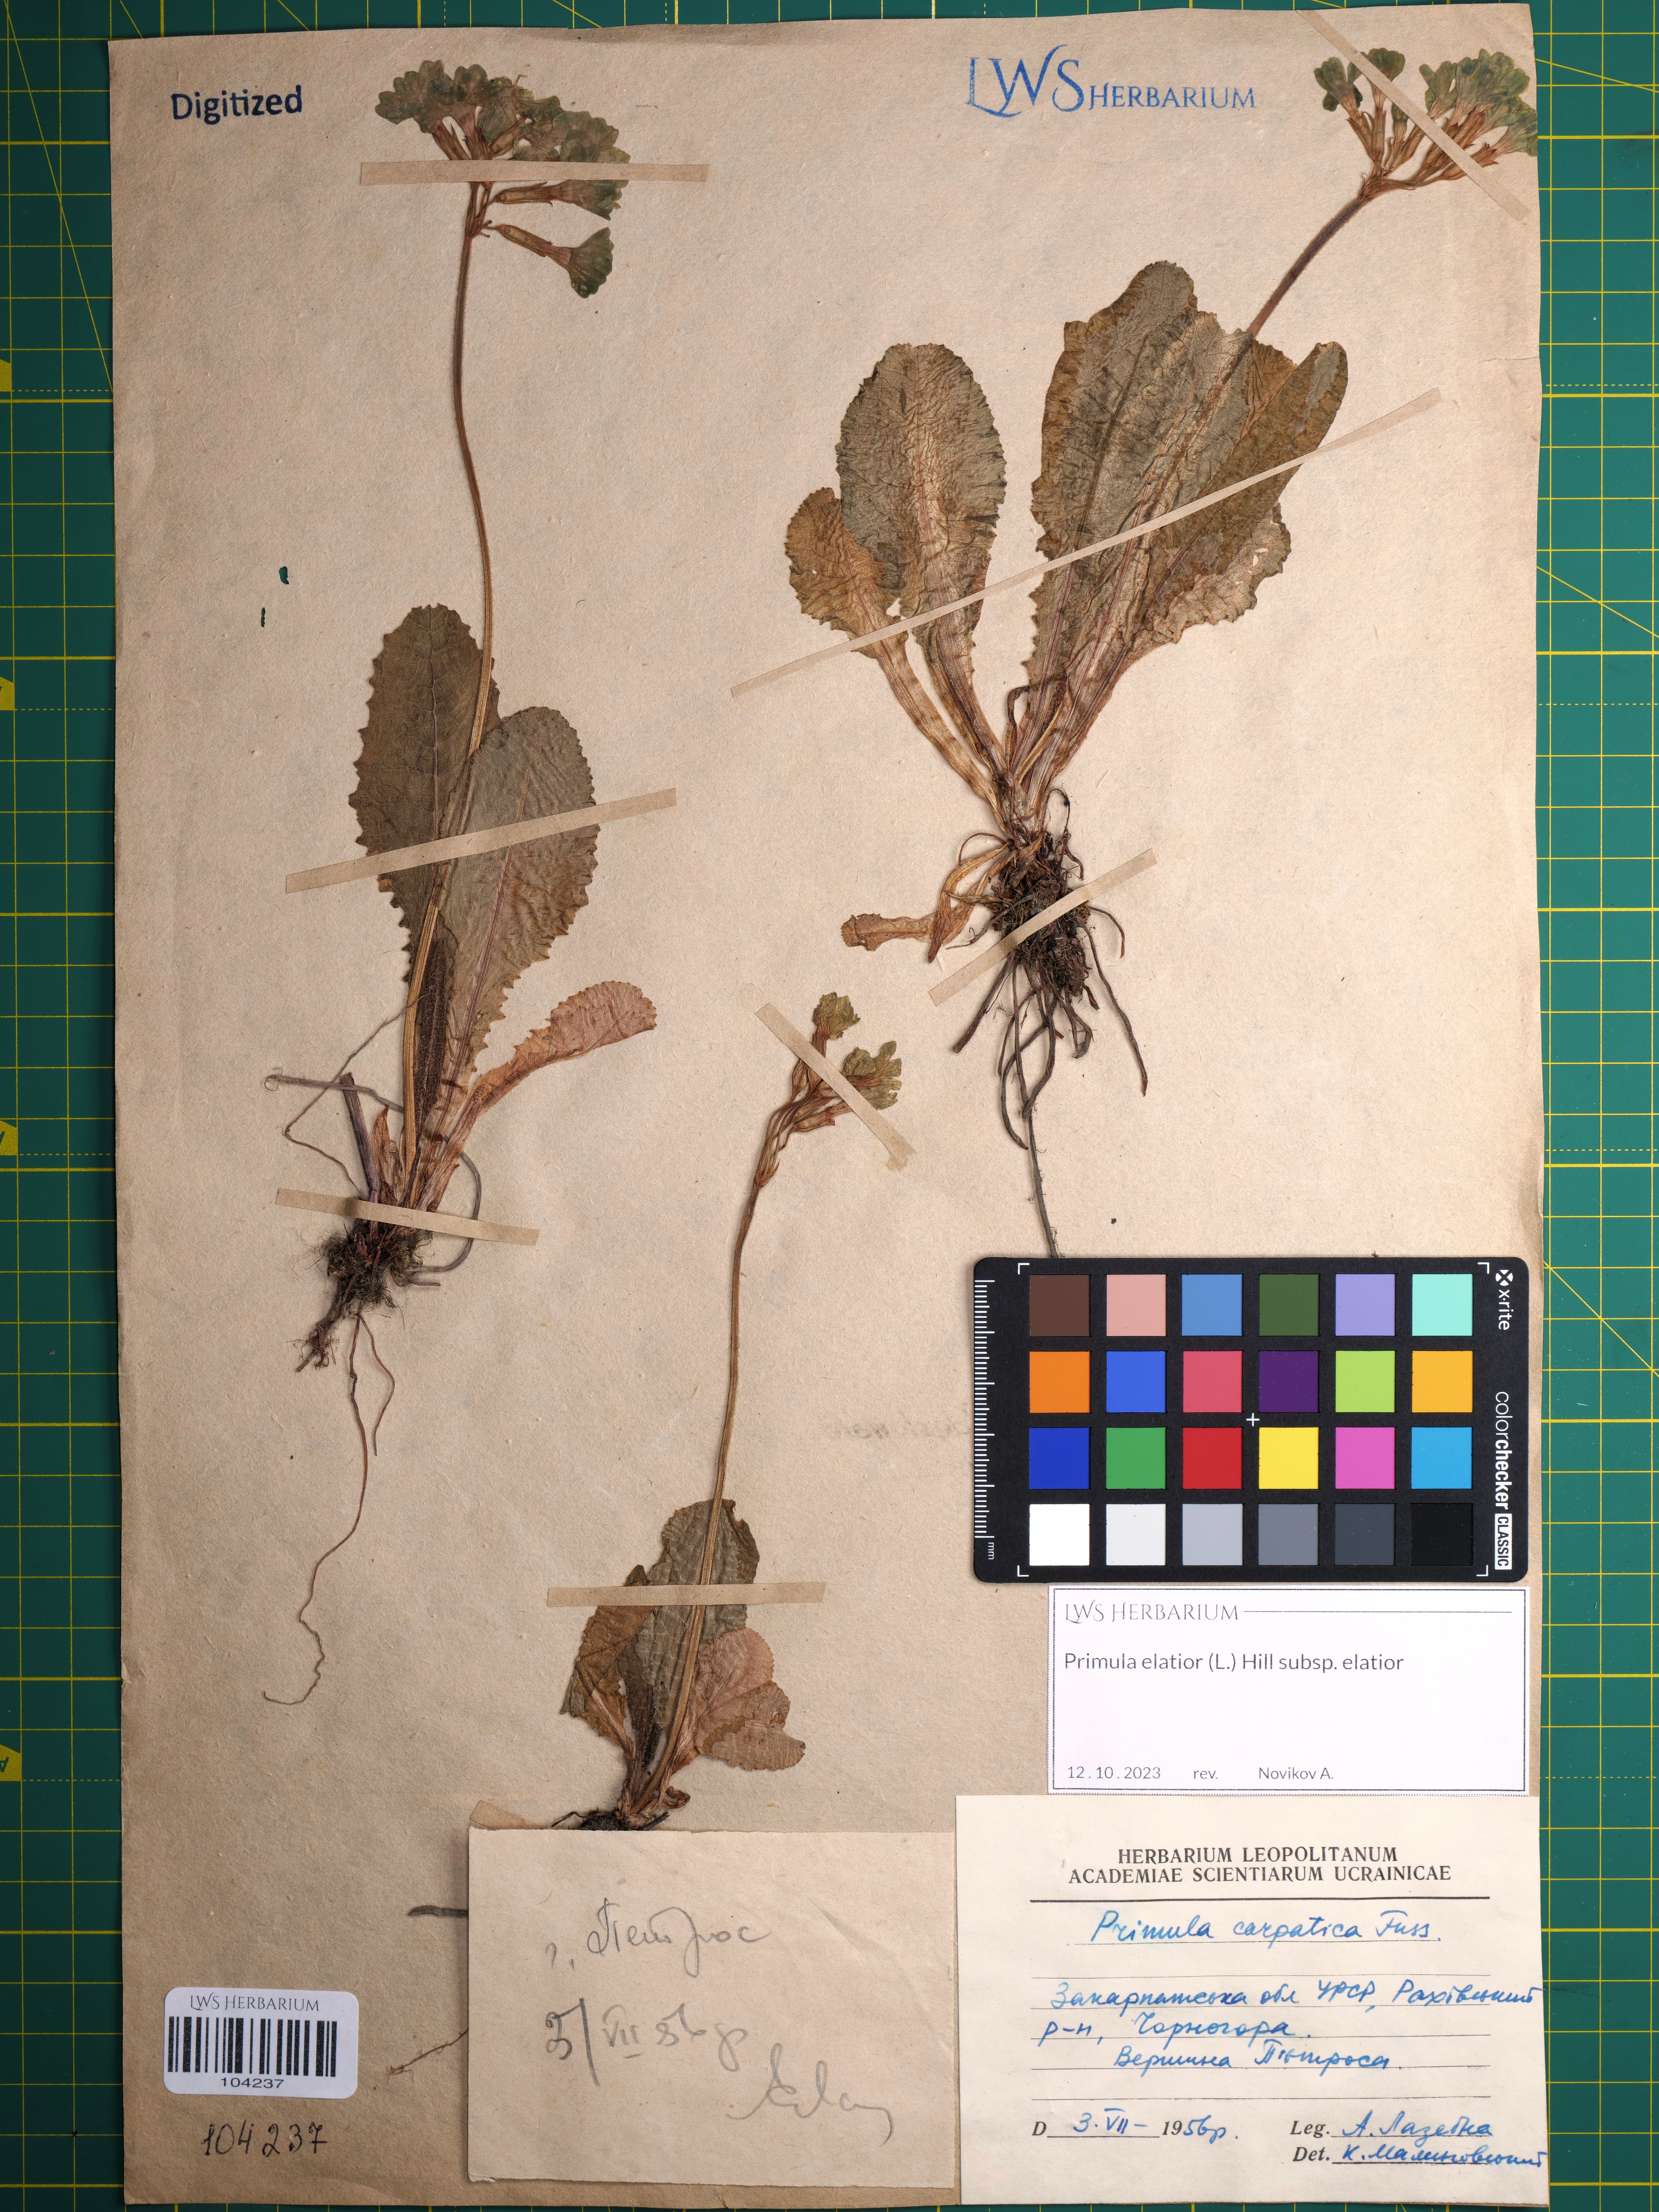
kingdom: Plantae
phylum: Tracheophyta
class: Magnoliopsida
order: Ericales
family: Primulaceae
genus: Primula
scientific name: Primula elatior
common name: Oxlip
